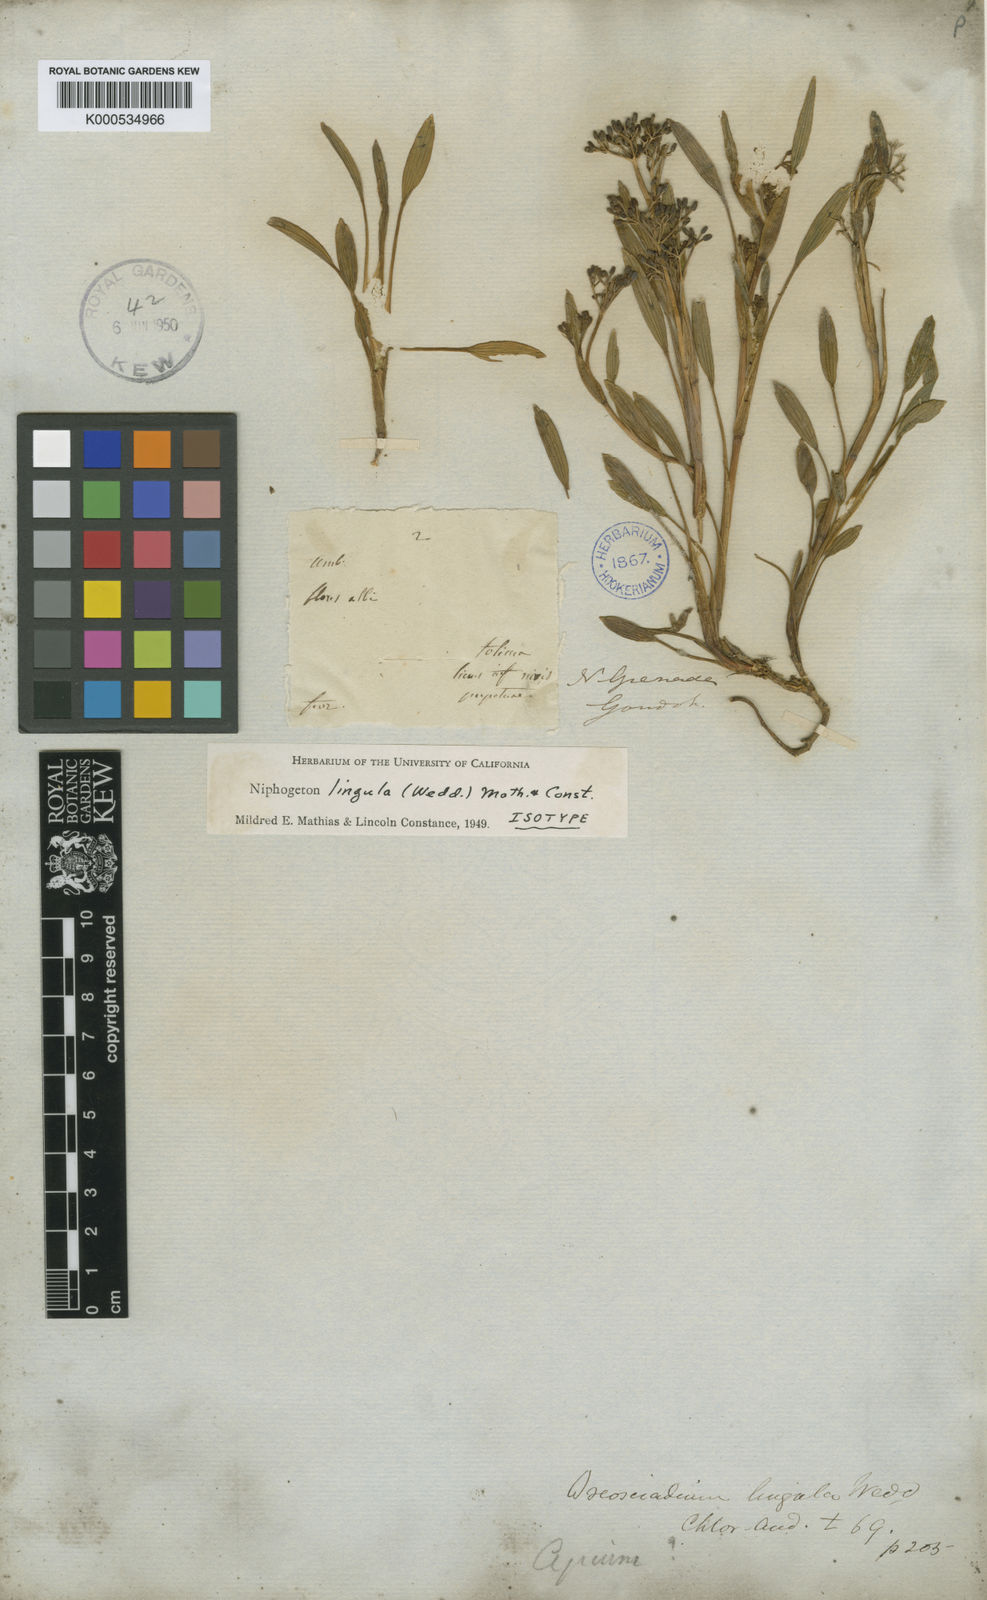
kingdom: Plantae
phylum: Tracheophyta
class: Magnoliopsida
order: Apiales
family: Apiaceae
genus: Niphogeton
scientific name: Niphogeton lingula
